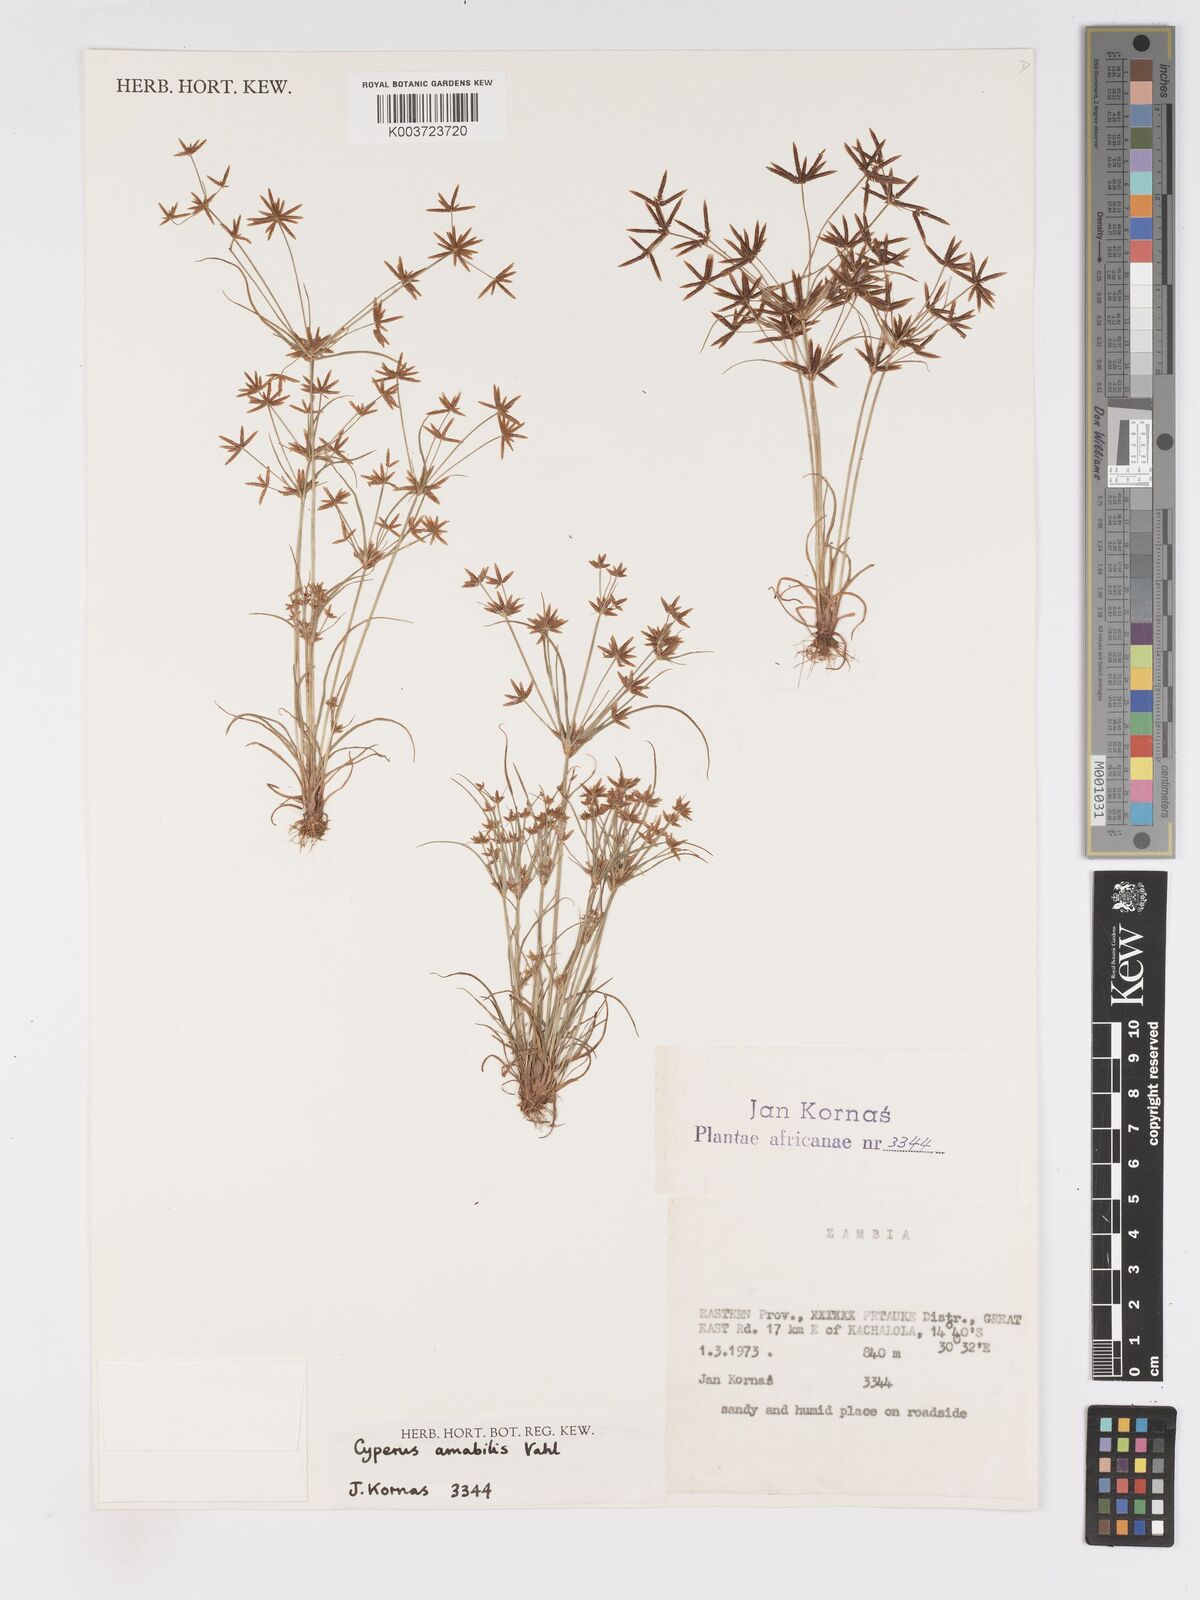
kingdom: Plantae
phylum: Tracheophyta
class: Liliopsida
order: Poales
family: Cyperaceae
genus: Cyperus
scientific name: Cyperus amabilis
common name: Foothill flat sedge
